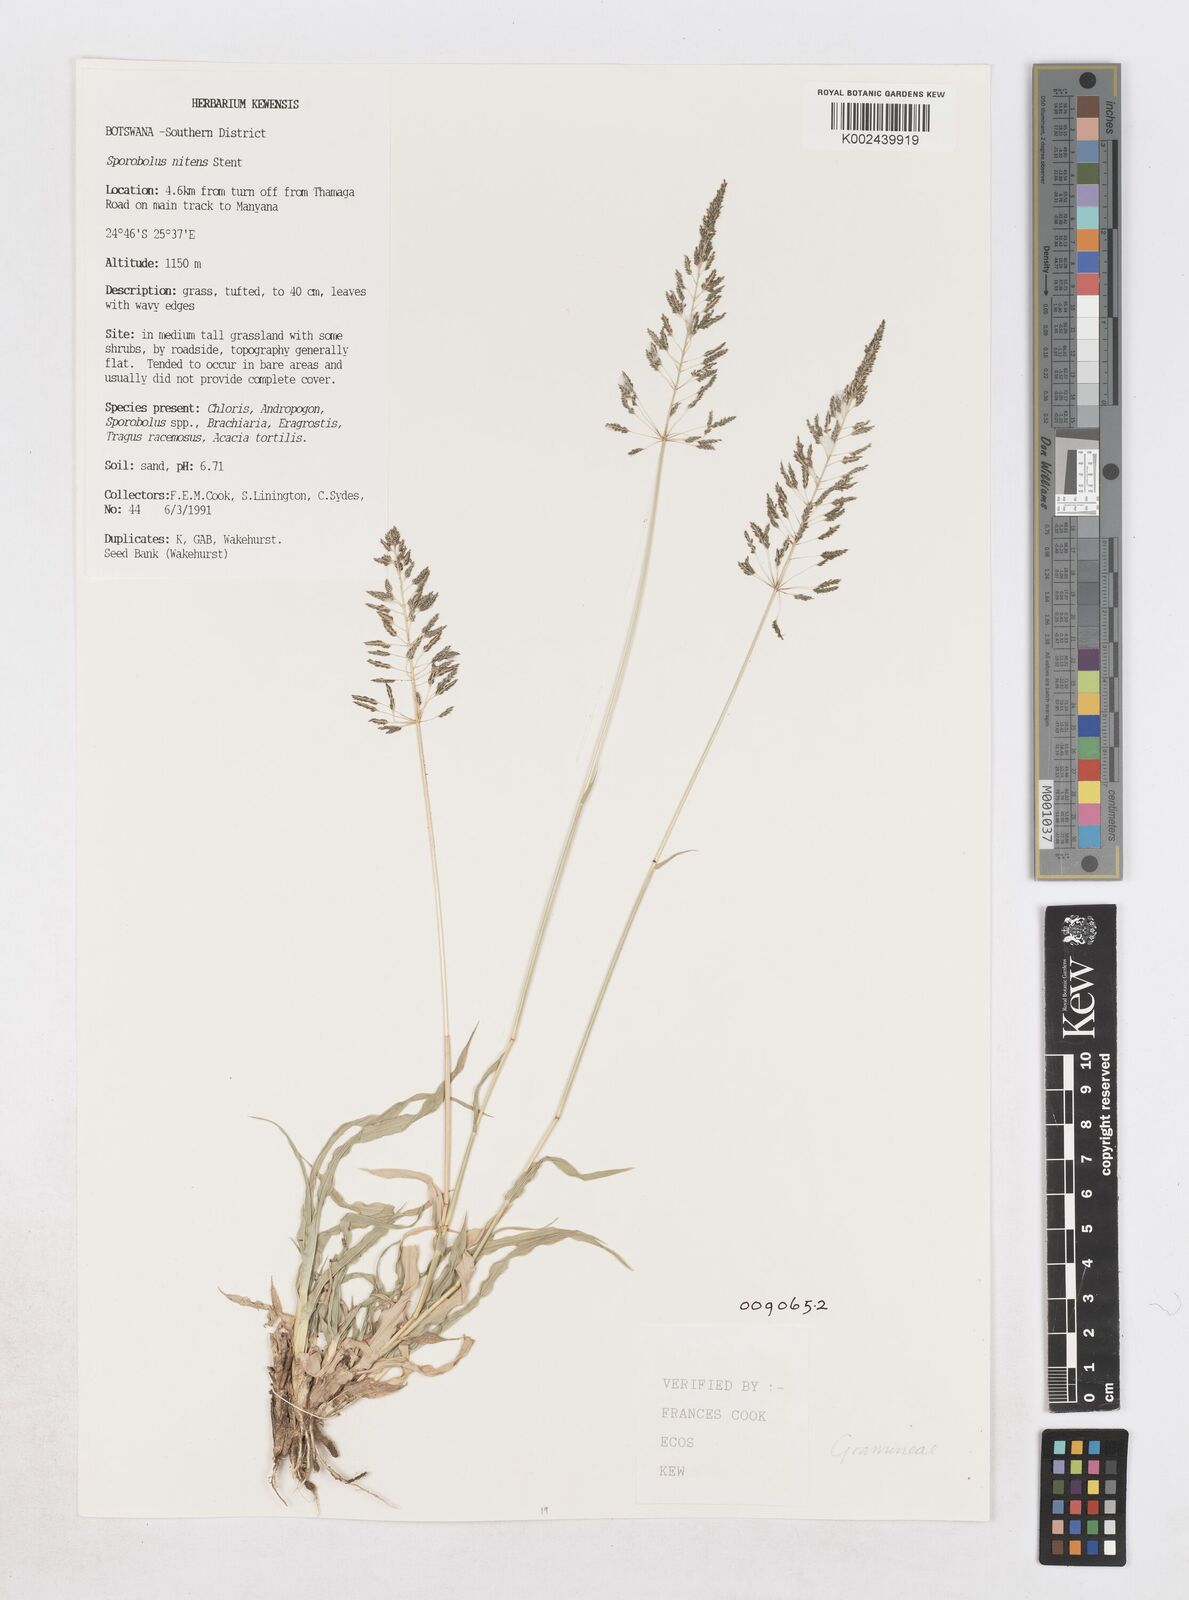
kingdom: Plantae
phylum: Tracheophyta
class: Liliopsida
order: Poales
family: Poaceae
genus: Sporobolus
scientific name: Sporobolus nitens
